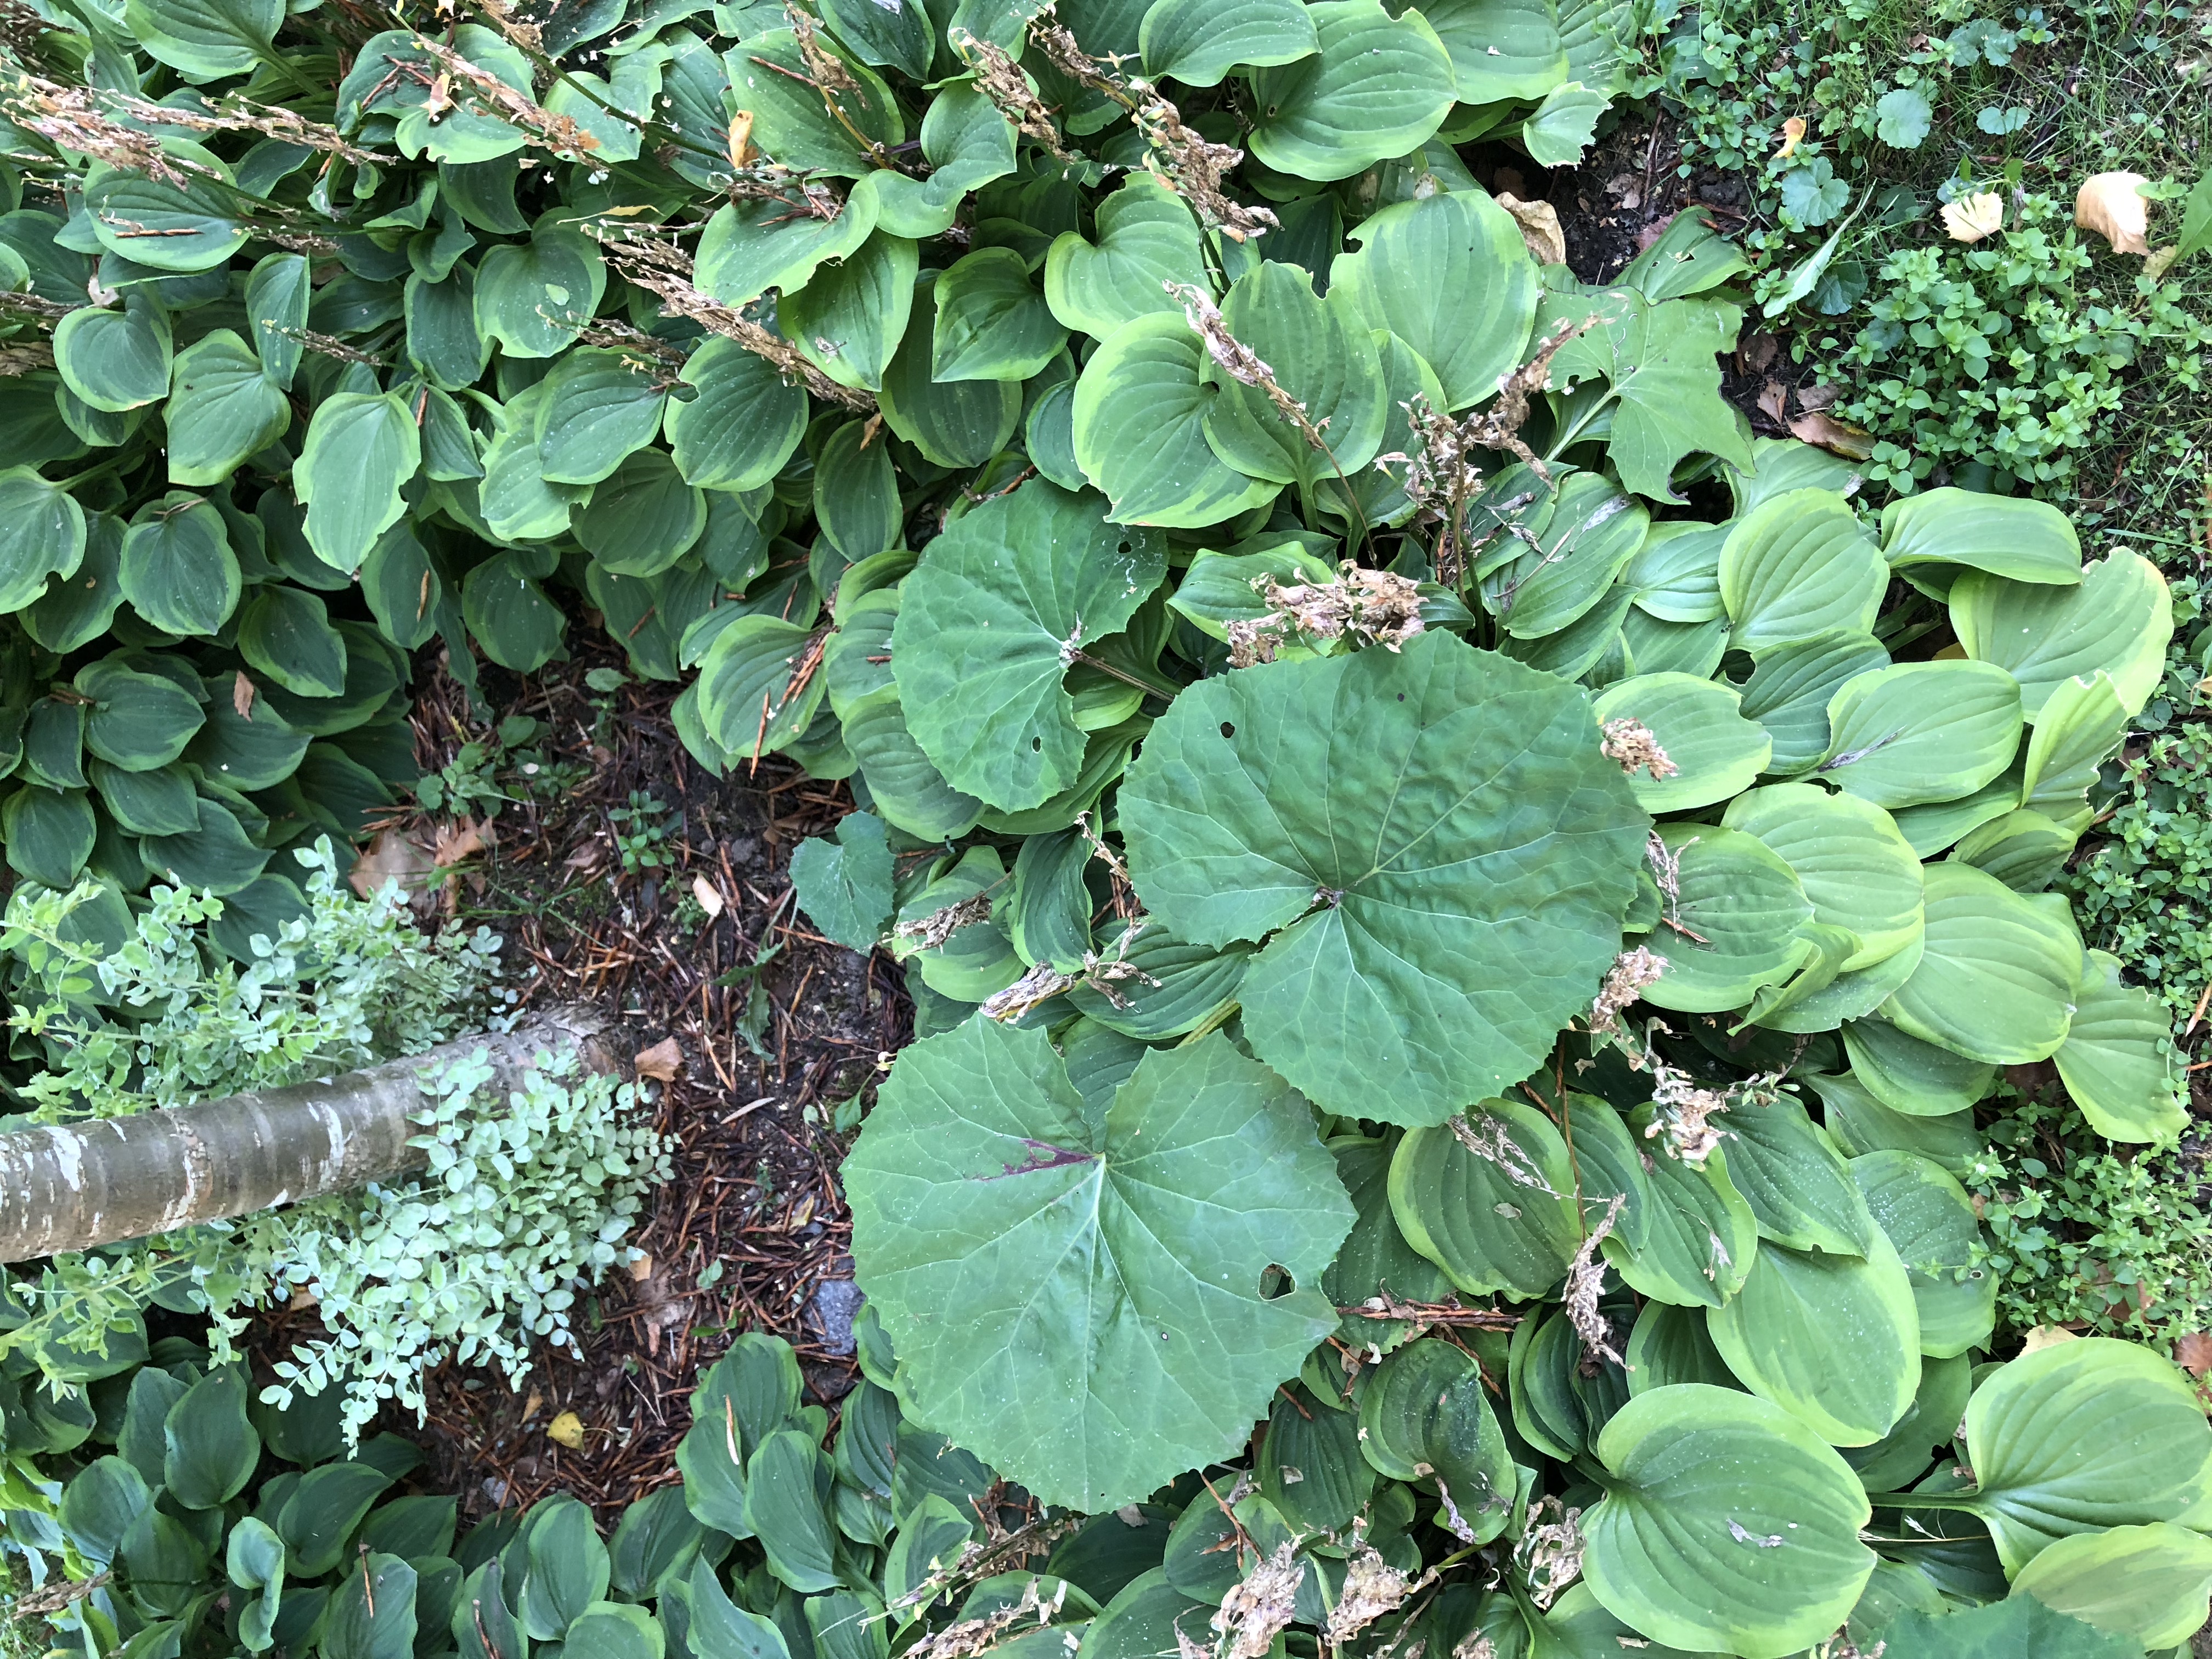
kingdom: Plantae
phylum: Tracheophyta
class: Magnoliopsida
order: Asterales
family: Asteraceae
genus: Tussilago
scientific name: Tussilago farfara
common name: Coltsfoot
